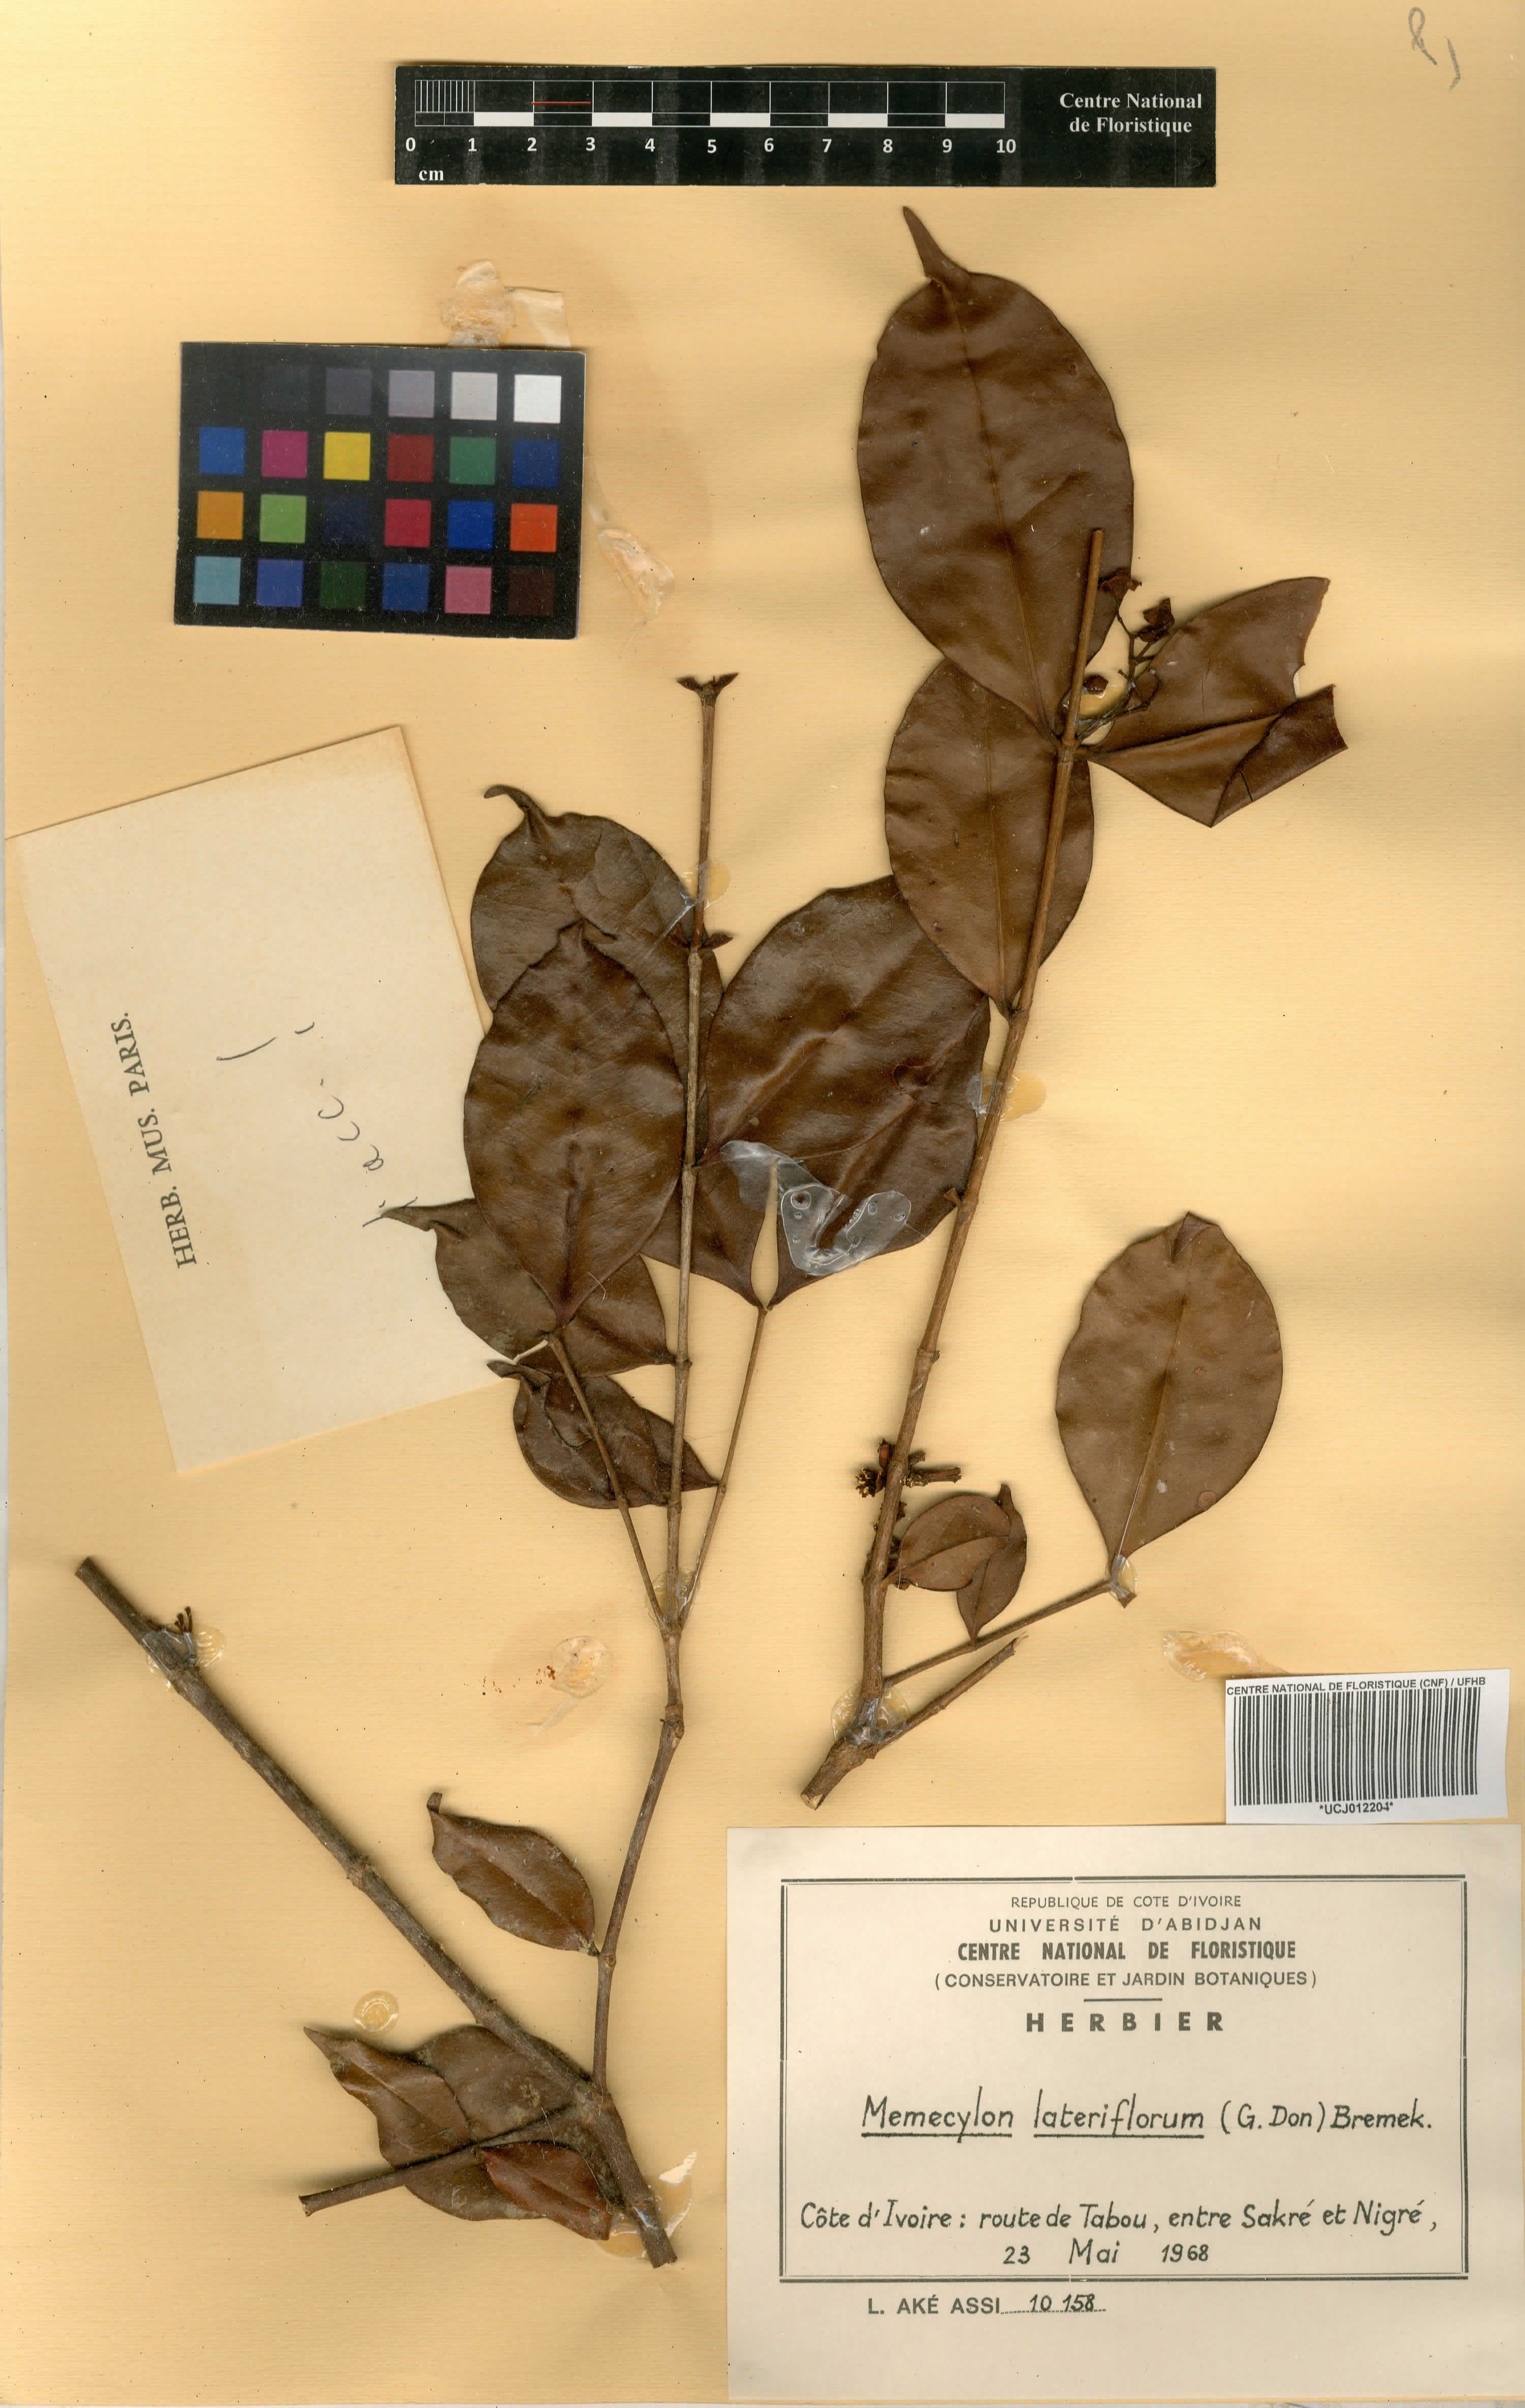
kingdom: Plantae
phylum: Tracheophyta
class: Magnoliopsida
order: Myrtales
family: Melastomataceae
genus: Memecylon
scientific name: Memecylon lateriflorum
